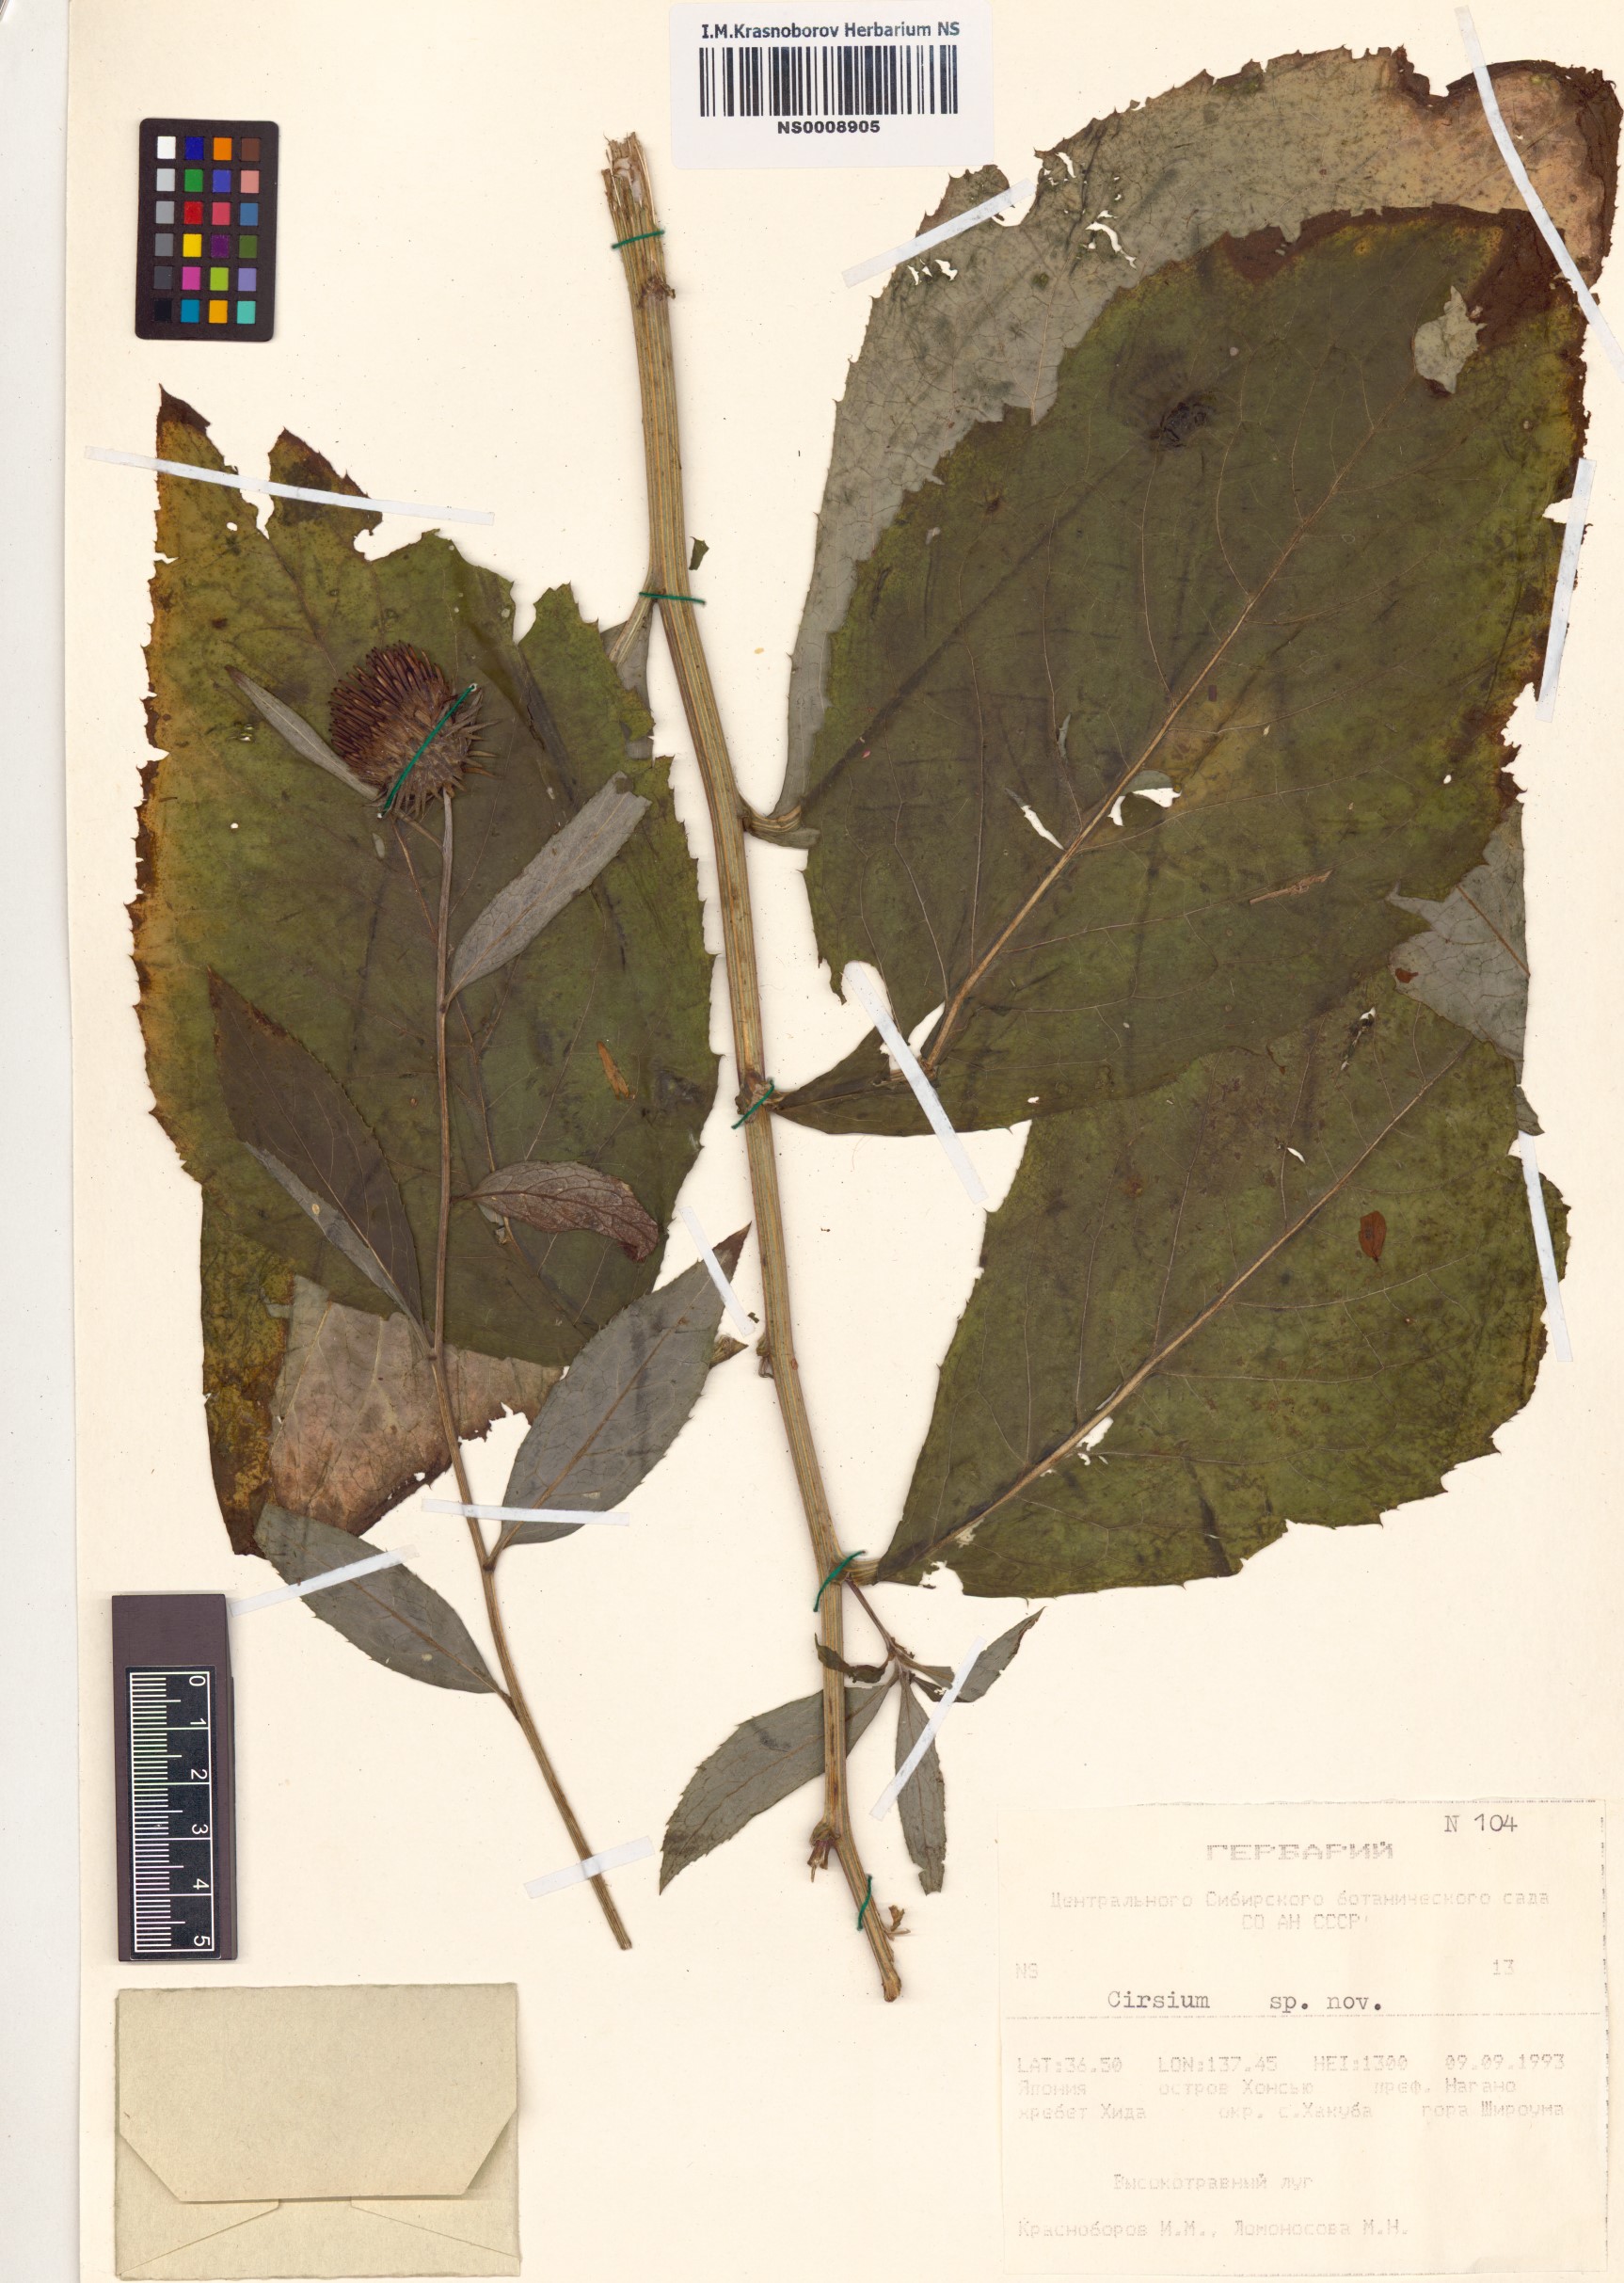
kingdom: Plantae
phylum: Tracheophyta
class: Magnoliopsida
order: Asterales
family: Asteraceae
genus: Cirsium
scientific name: Cirsium
